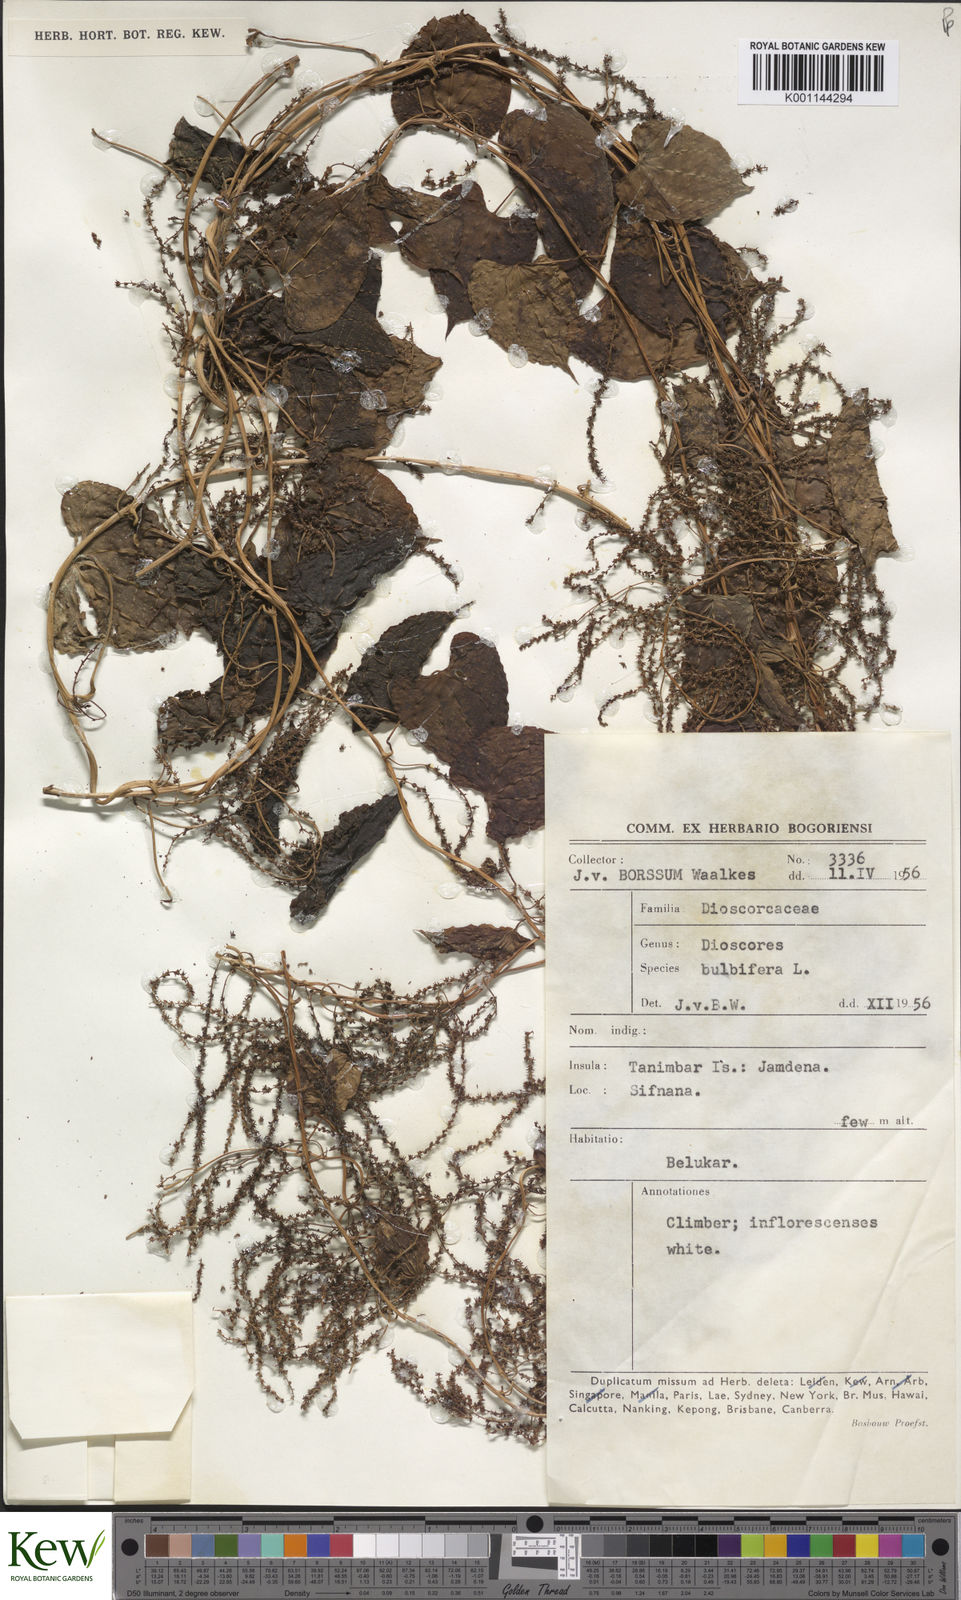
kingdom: Plantae
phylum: Tracheophyta
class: Liliopsida
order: Dioscoreales
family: Dioscoreaceae
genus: Dioscorea
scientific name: Dioscorea bulbifera
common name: Air yam
